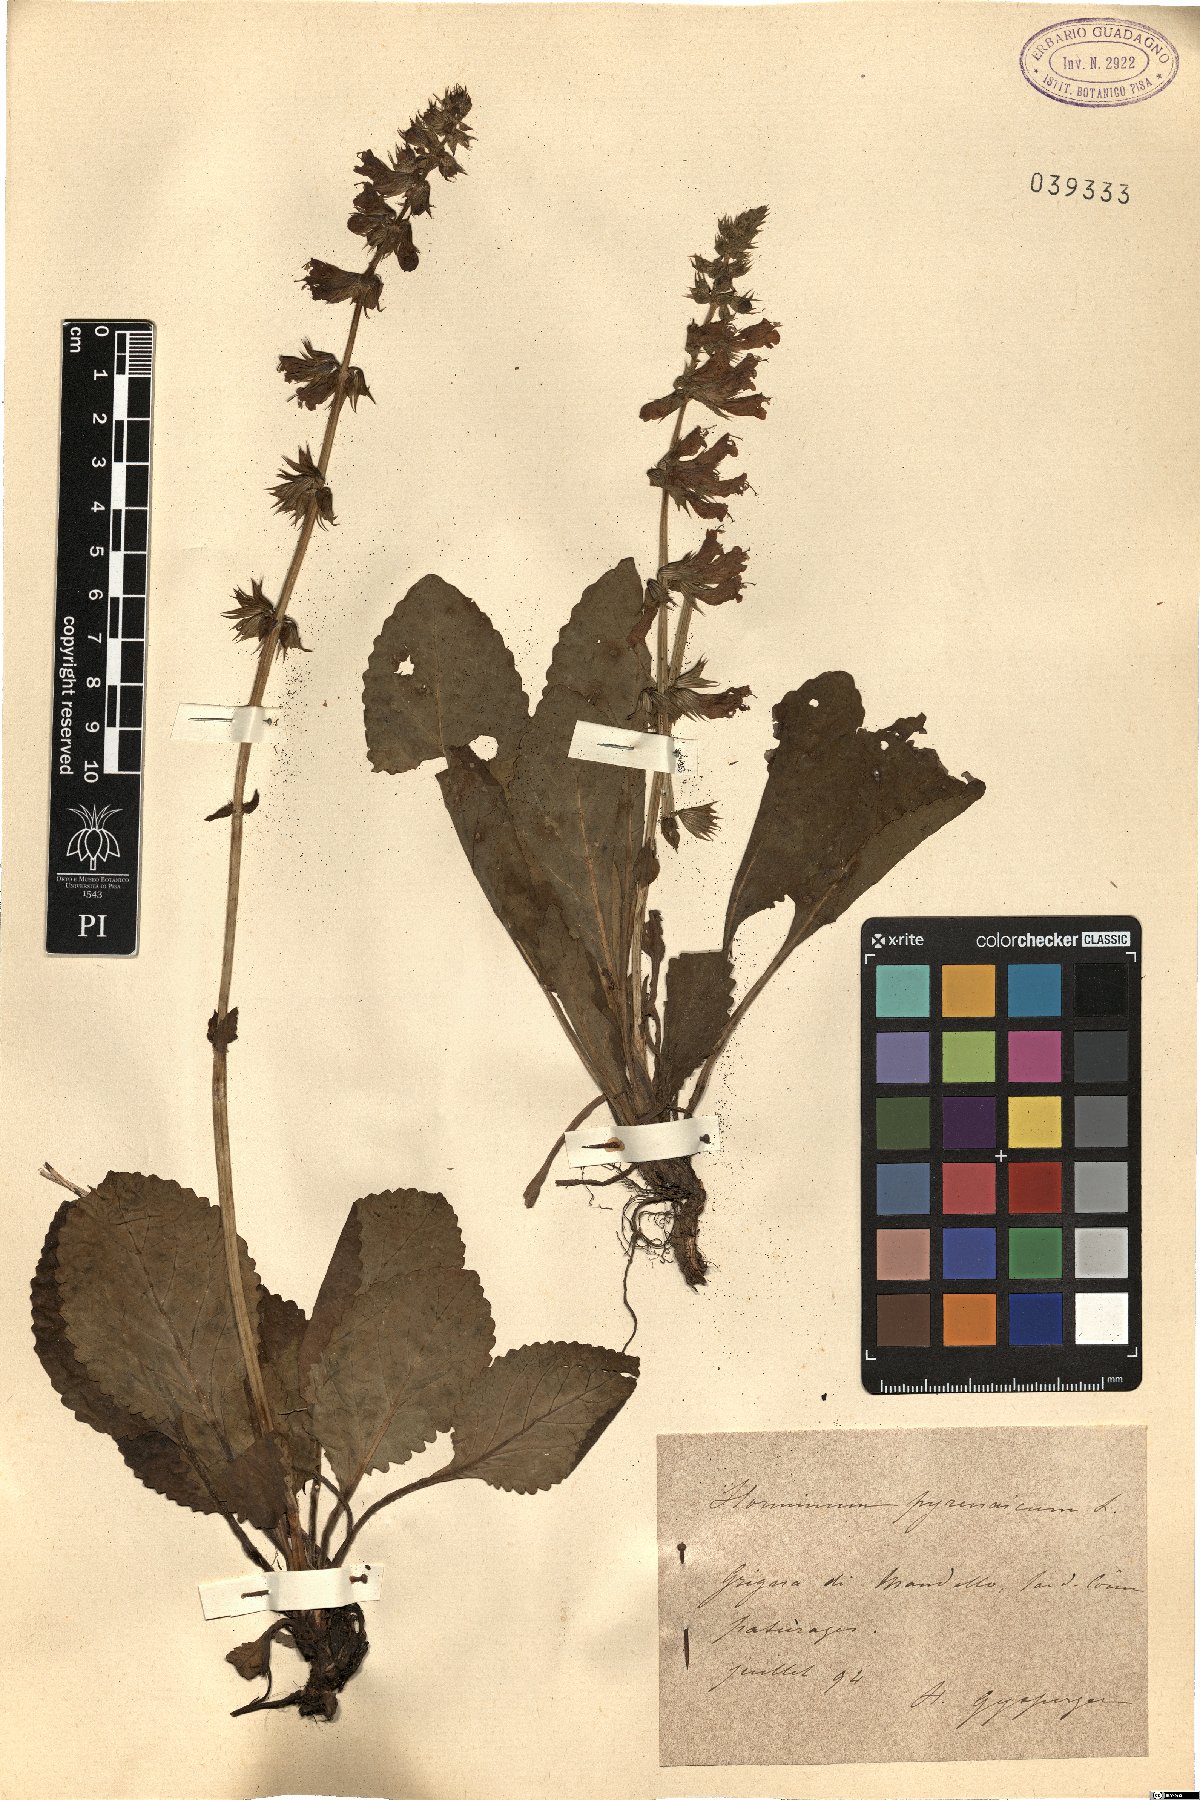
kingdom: Plantae
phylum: Tracheophyta
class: Magnoliopsida
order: Lamiales
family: Lamiaceae
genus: Horminum
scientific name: Horminum pyrenaicum
